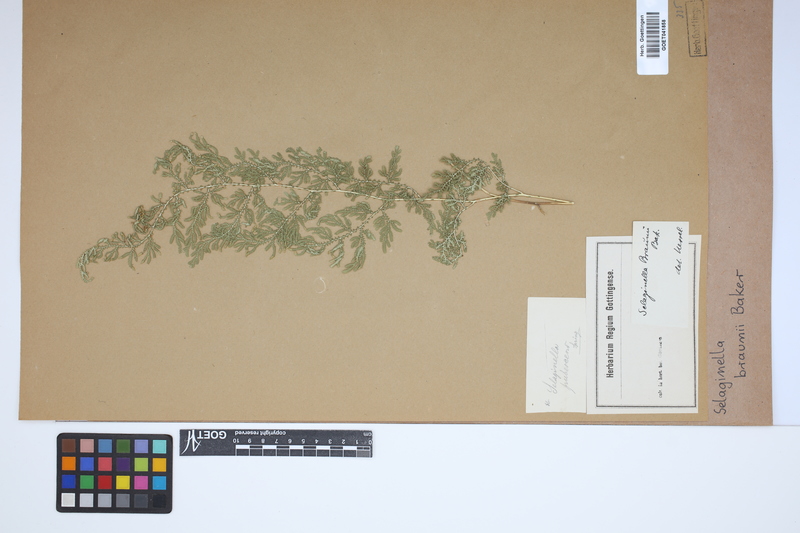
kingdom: Plantae
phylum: Tracheophyta
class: Lycopodiopsida
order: Selaginellales
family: Selaginellaceae
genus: Selaginella
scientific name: Selaginella braunii
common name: Braun's spikemoss
